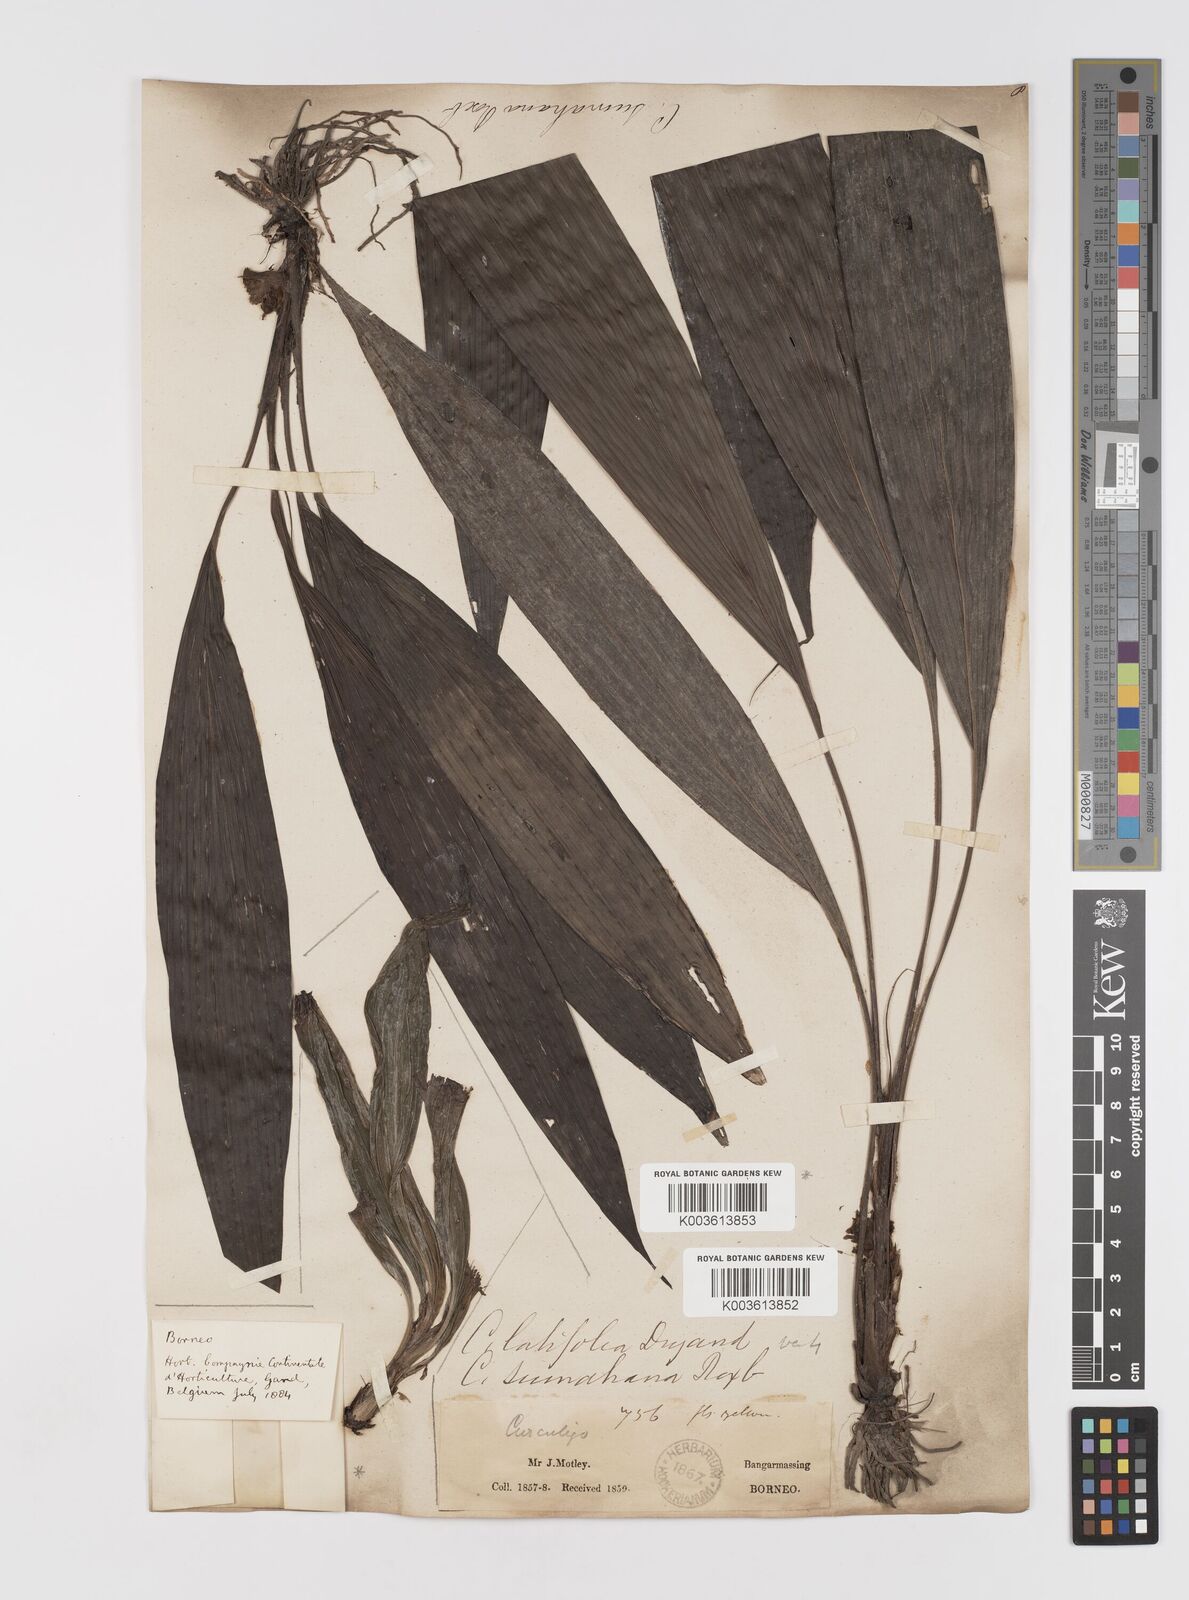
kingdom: Plantae
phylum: Tracheophyta
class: Liliopsida
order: Asparagales
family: Hypoxidaceae
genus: Curculigo
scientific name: Curculigo latifolia
